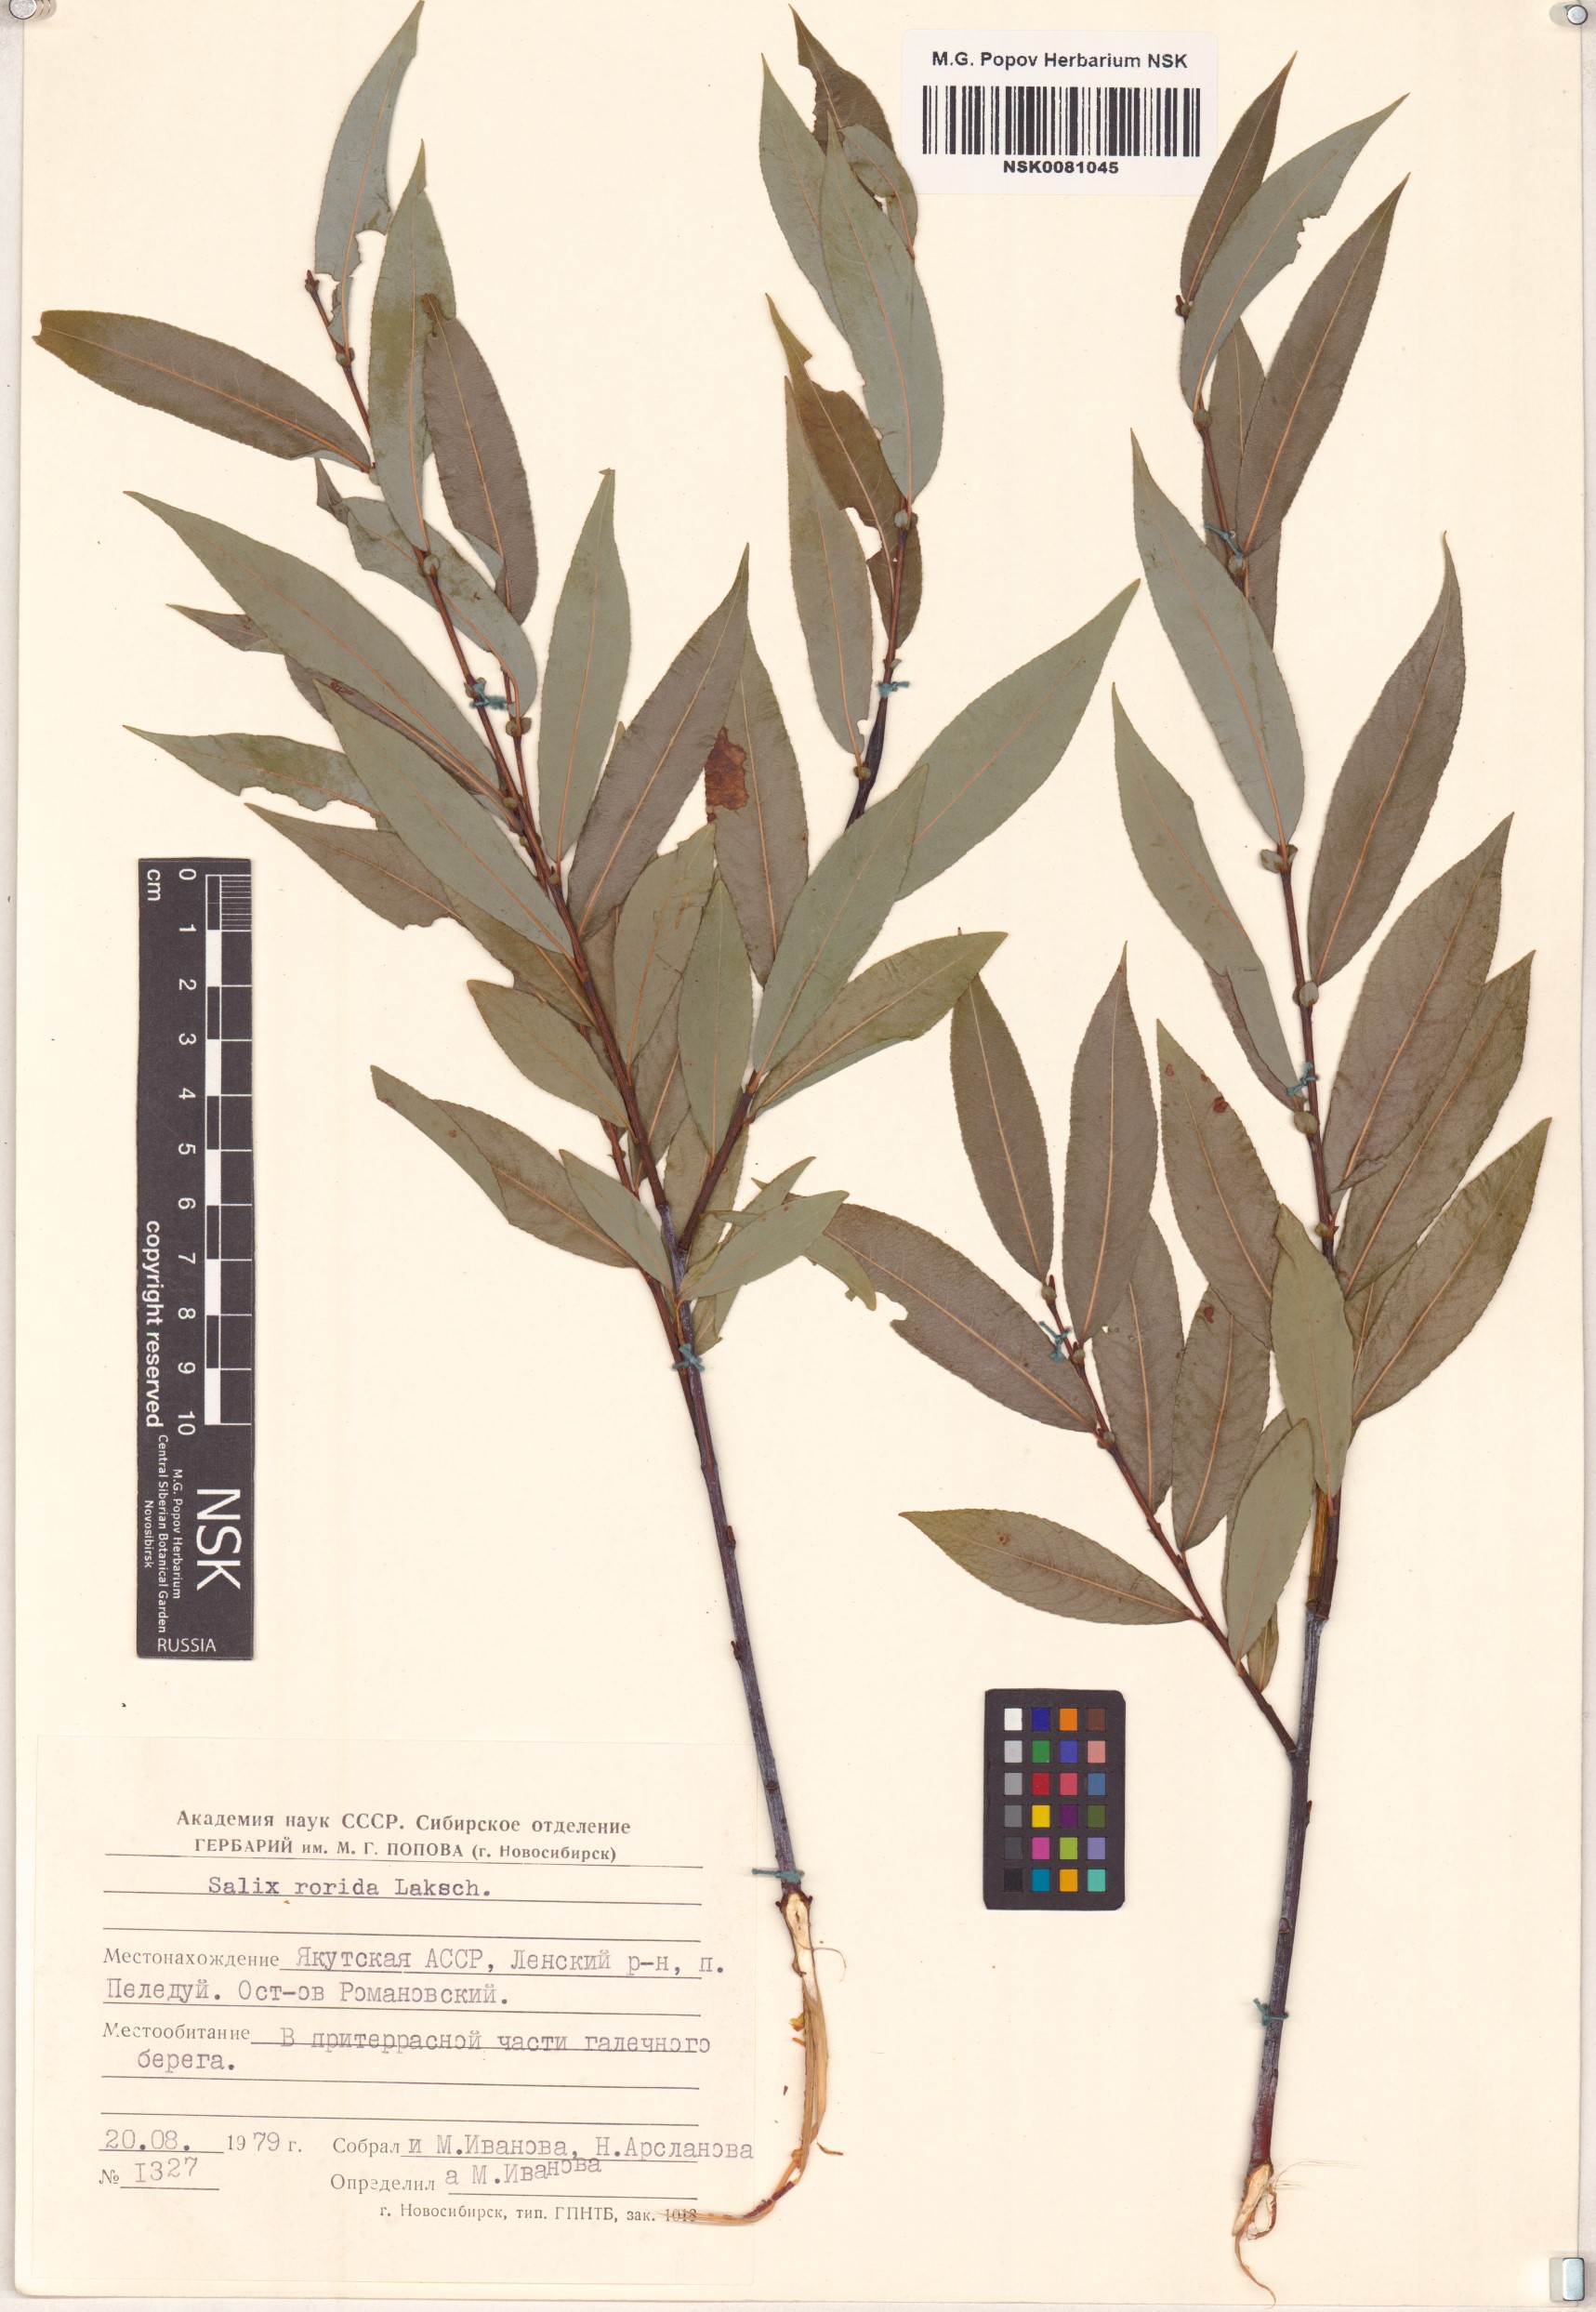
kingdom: Plantae
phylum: Tracheophyta
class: Magnoliopsida
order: Malpighiales
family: Salicaceae
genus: Salix
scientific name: Salix rorida
